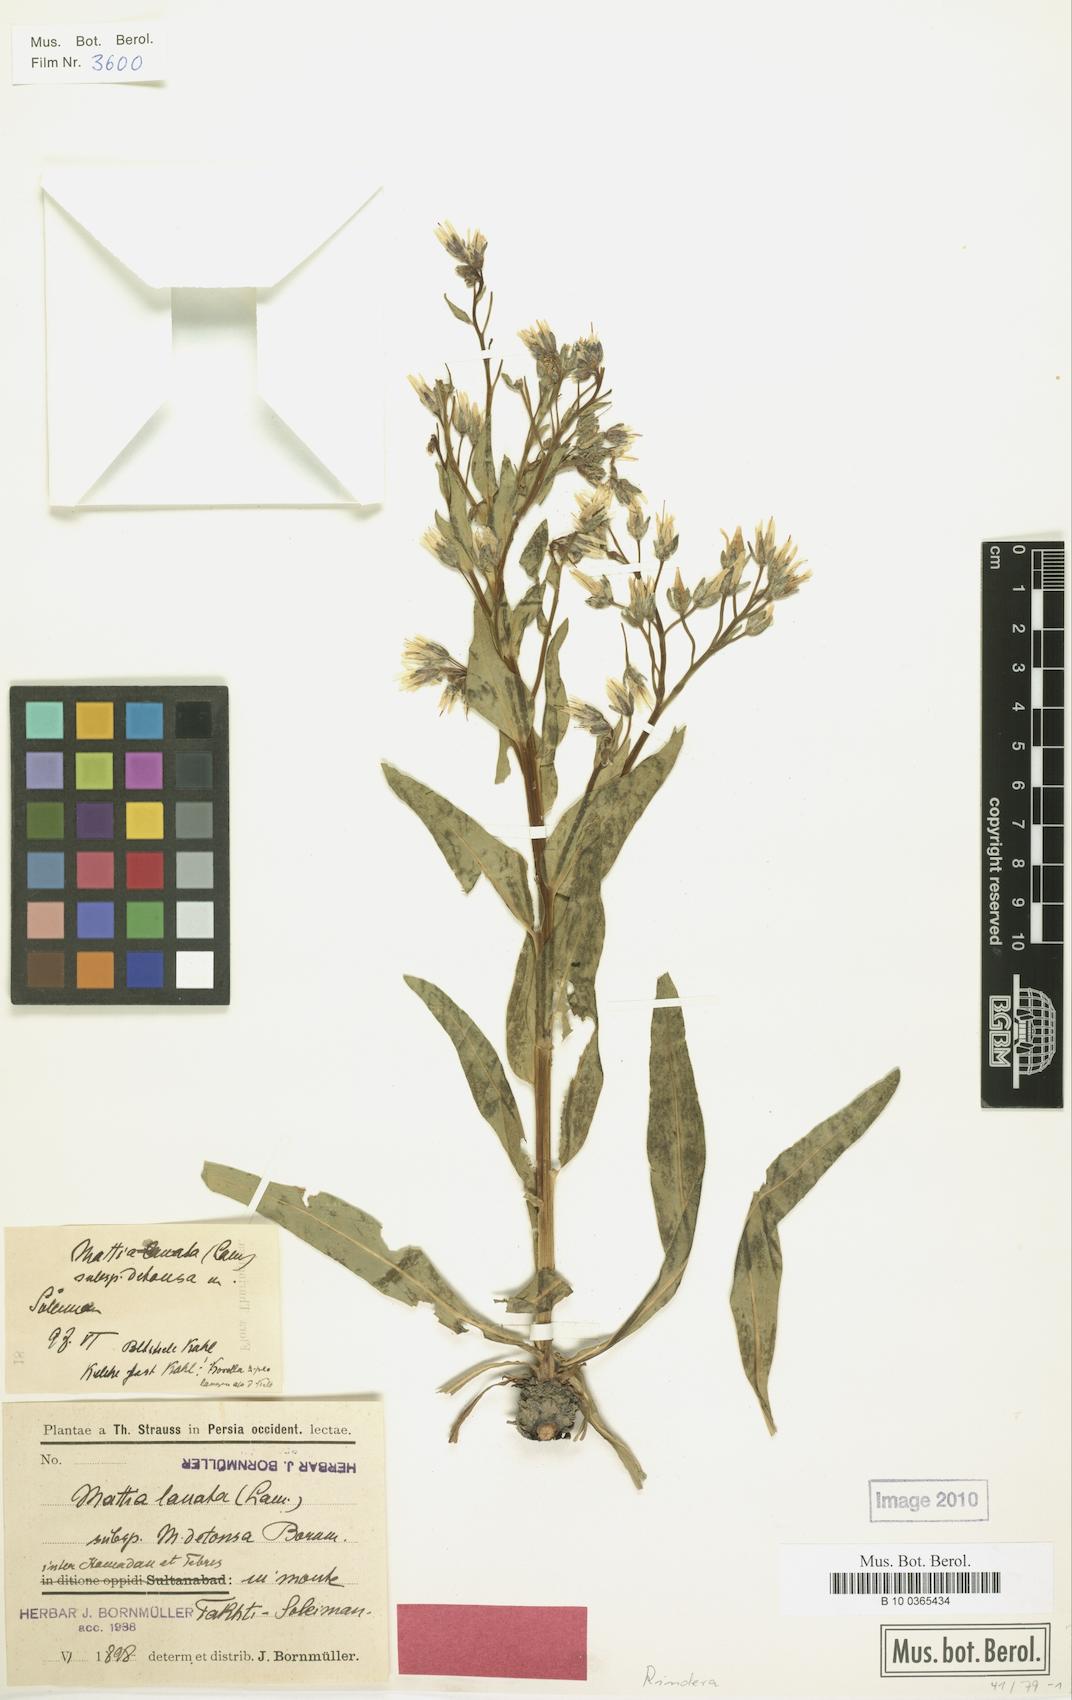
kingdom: Plantae
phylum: Tracheophyta
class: Magnoliopsida
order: Boraginales
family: Boraginaceae
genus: Rindera
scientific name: Rindera lanata
